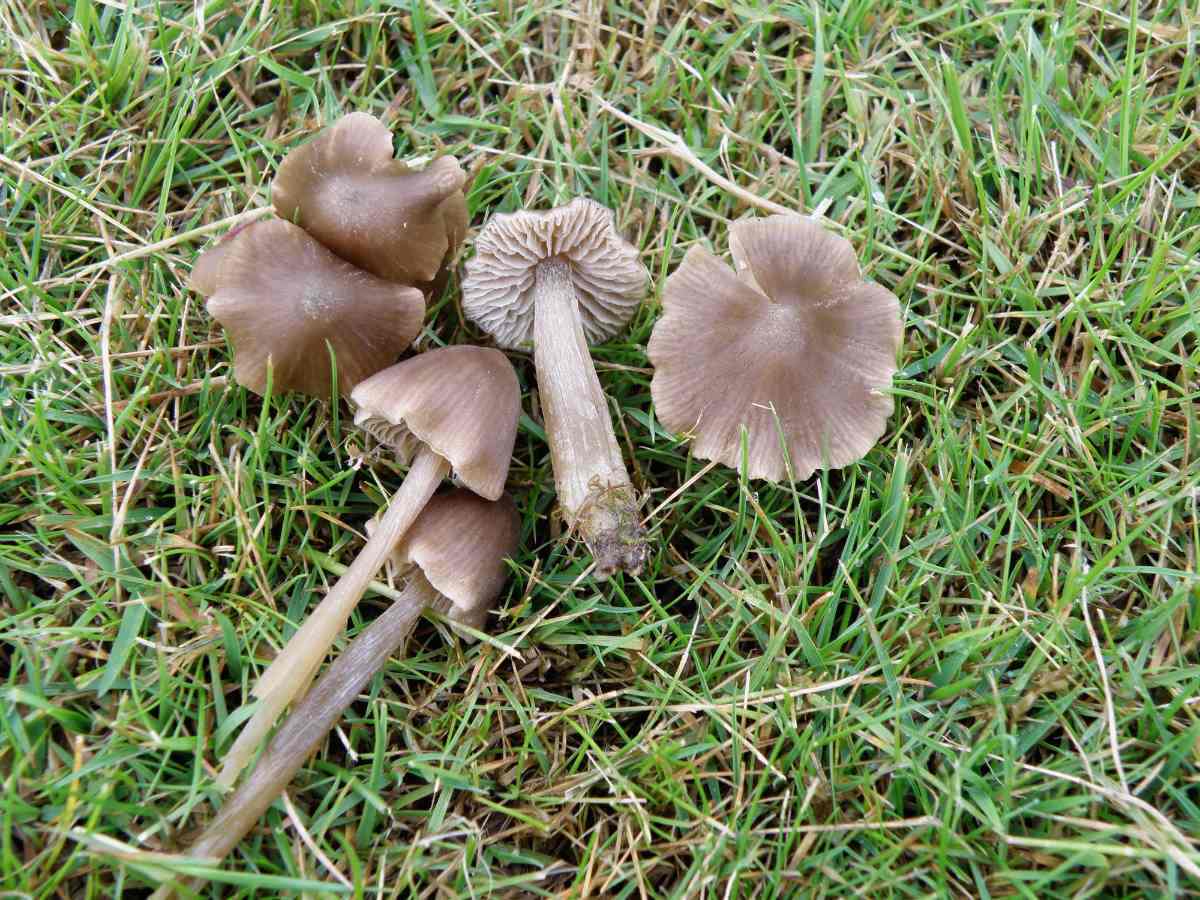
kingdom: Fungi
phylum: Basidiomycota
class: Agaricomycetes
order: Agaricales
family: Entolomataceae
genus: Entoloma
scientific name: Entoloma ventricosum
